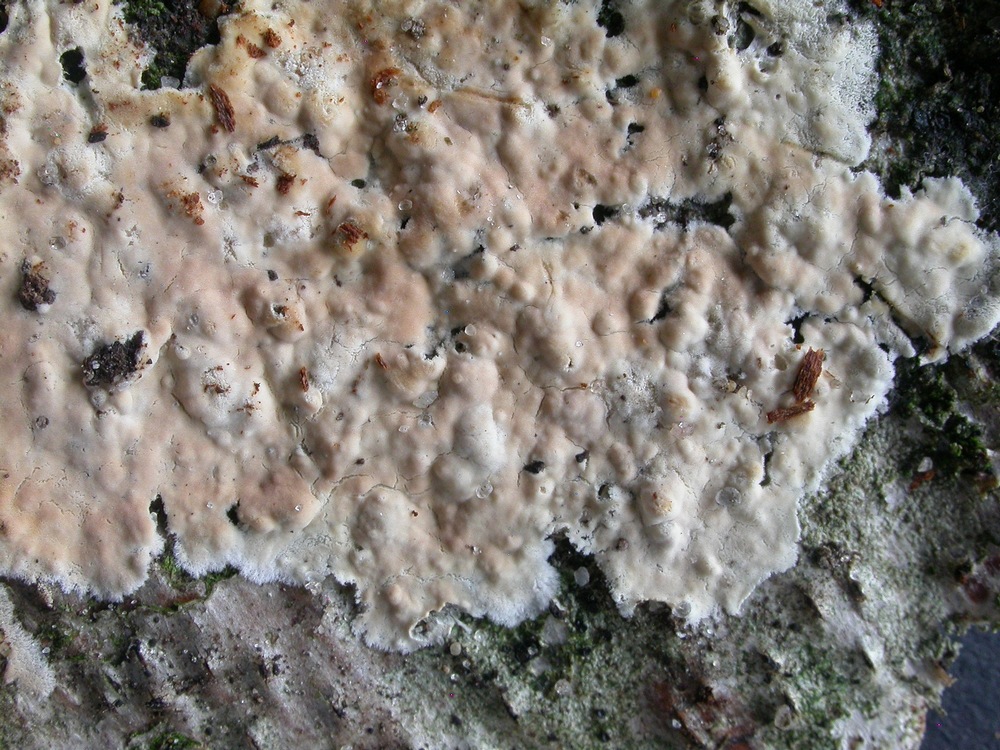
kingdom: Fungi
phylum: Basidiomycota
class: Agaricomycetes
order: Agaricales
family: Physalacriaceae
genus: Cylindrobasidium
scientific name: Cylindrobasidium evolvens
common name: sprækkehinde
